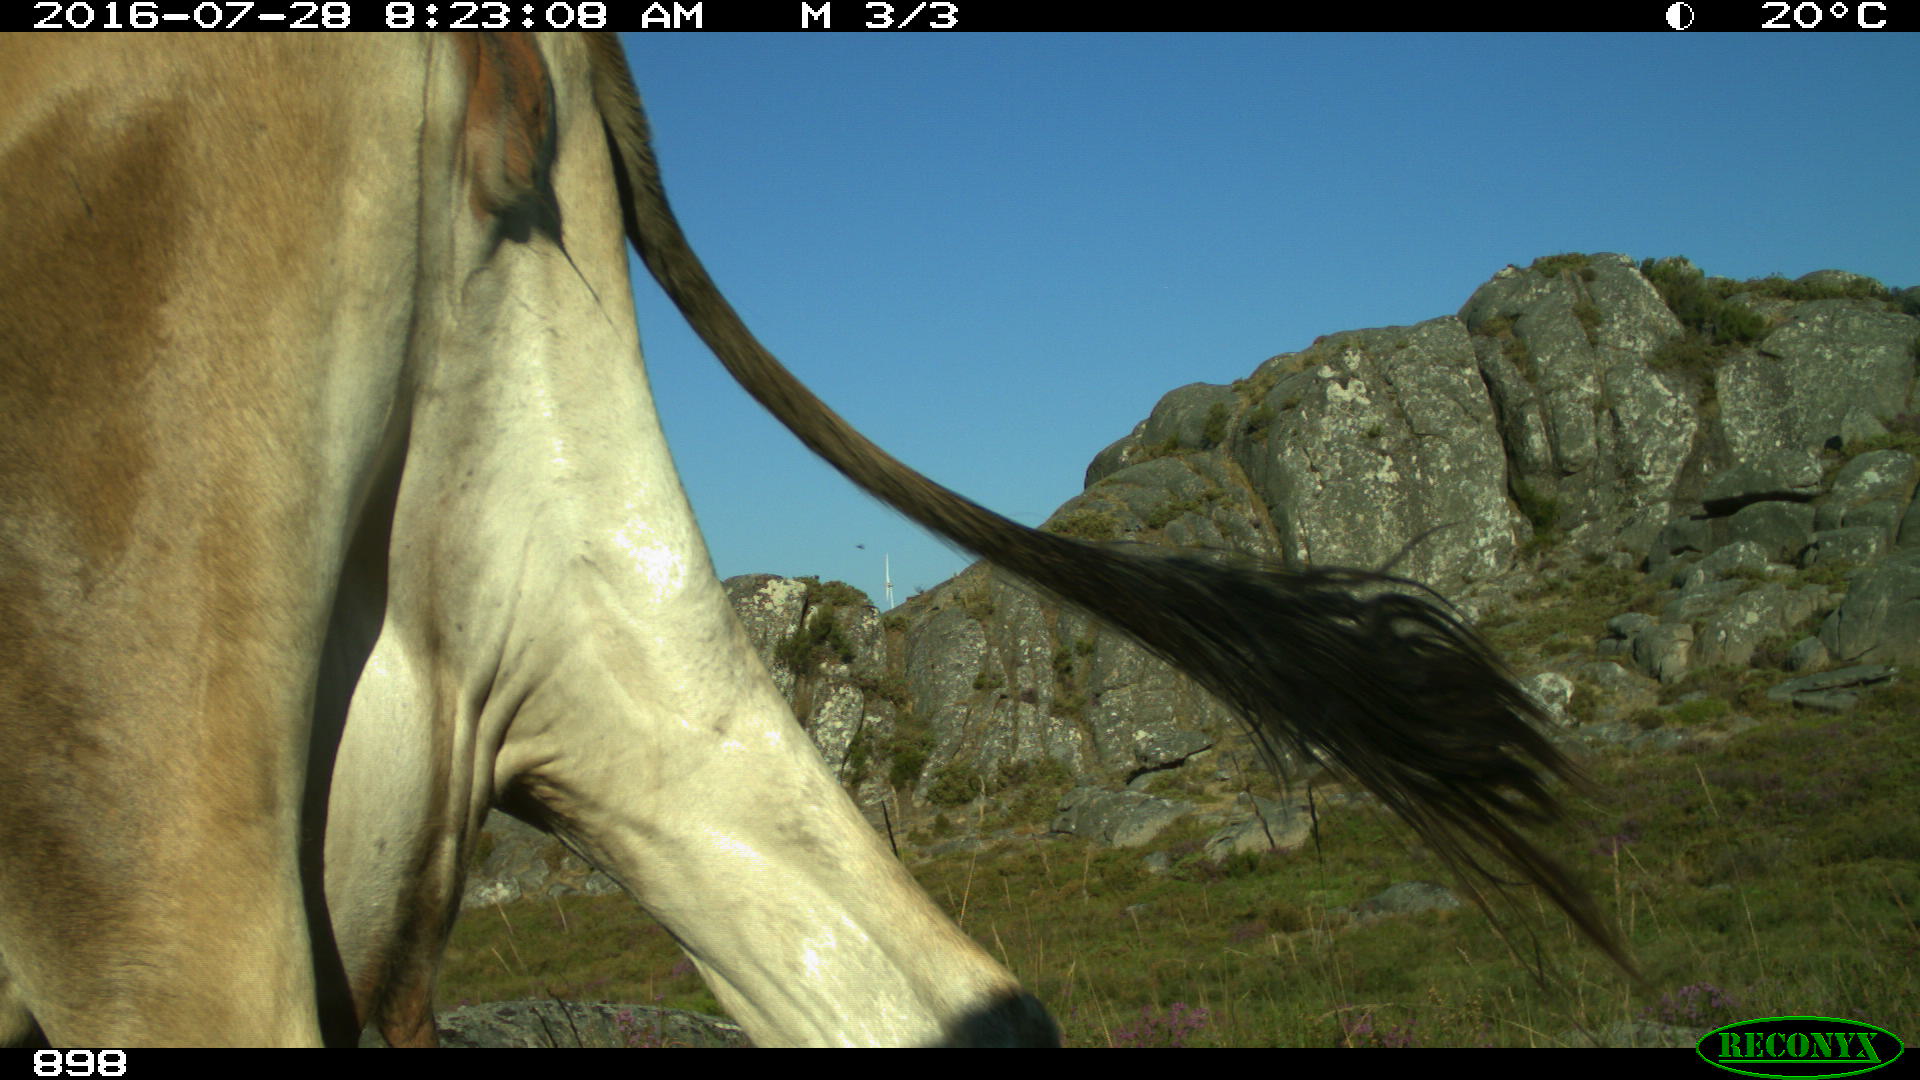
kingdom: Animalia
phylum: Chordata
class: Mammalia
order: Artiodactyla
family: Bovidae
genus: Bos
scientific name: Bos taurus
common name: Domesticated cattle
